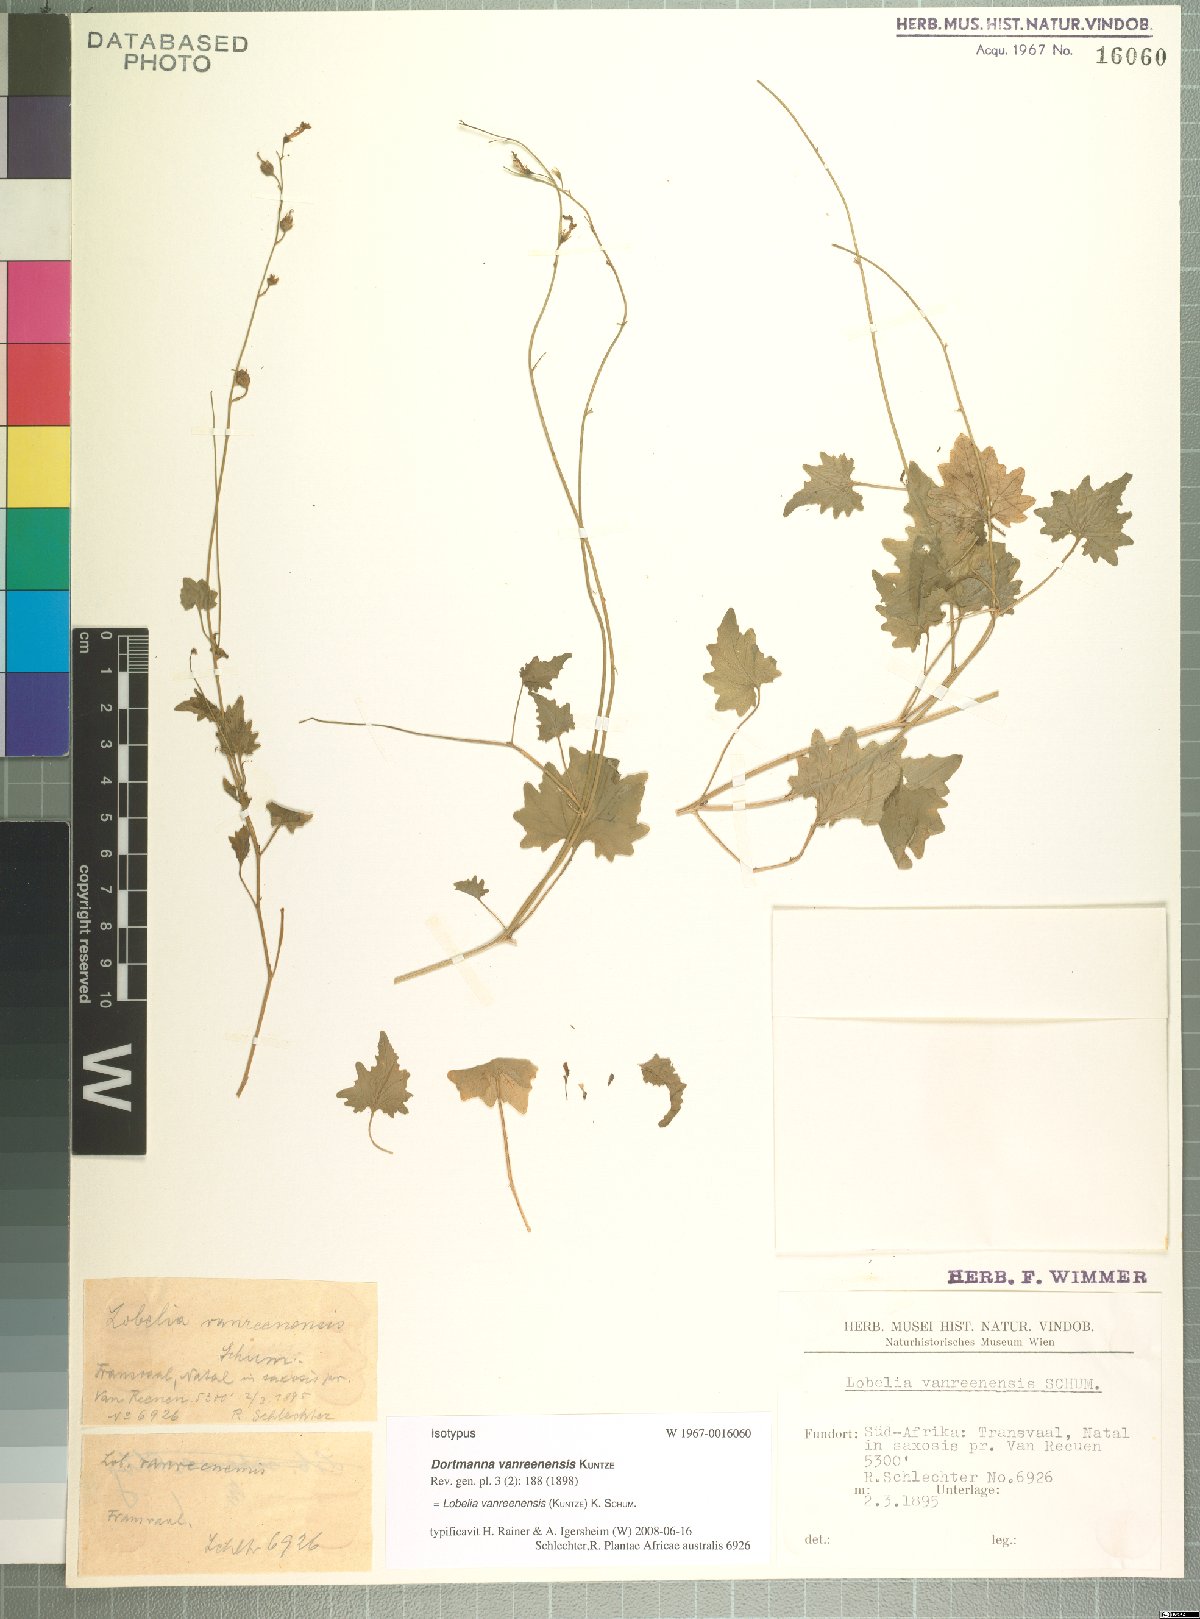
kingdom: Plantae
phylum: Tracheophyta
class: Magnoliopsida
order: Asterales
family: Campanulaceae
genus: Lobelia
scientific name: Lobelia vanreenensis
